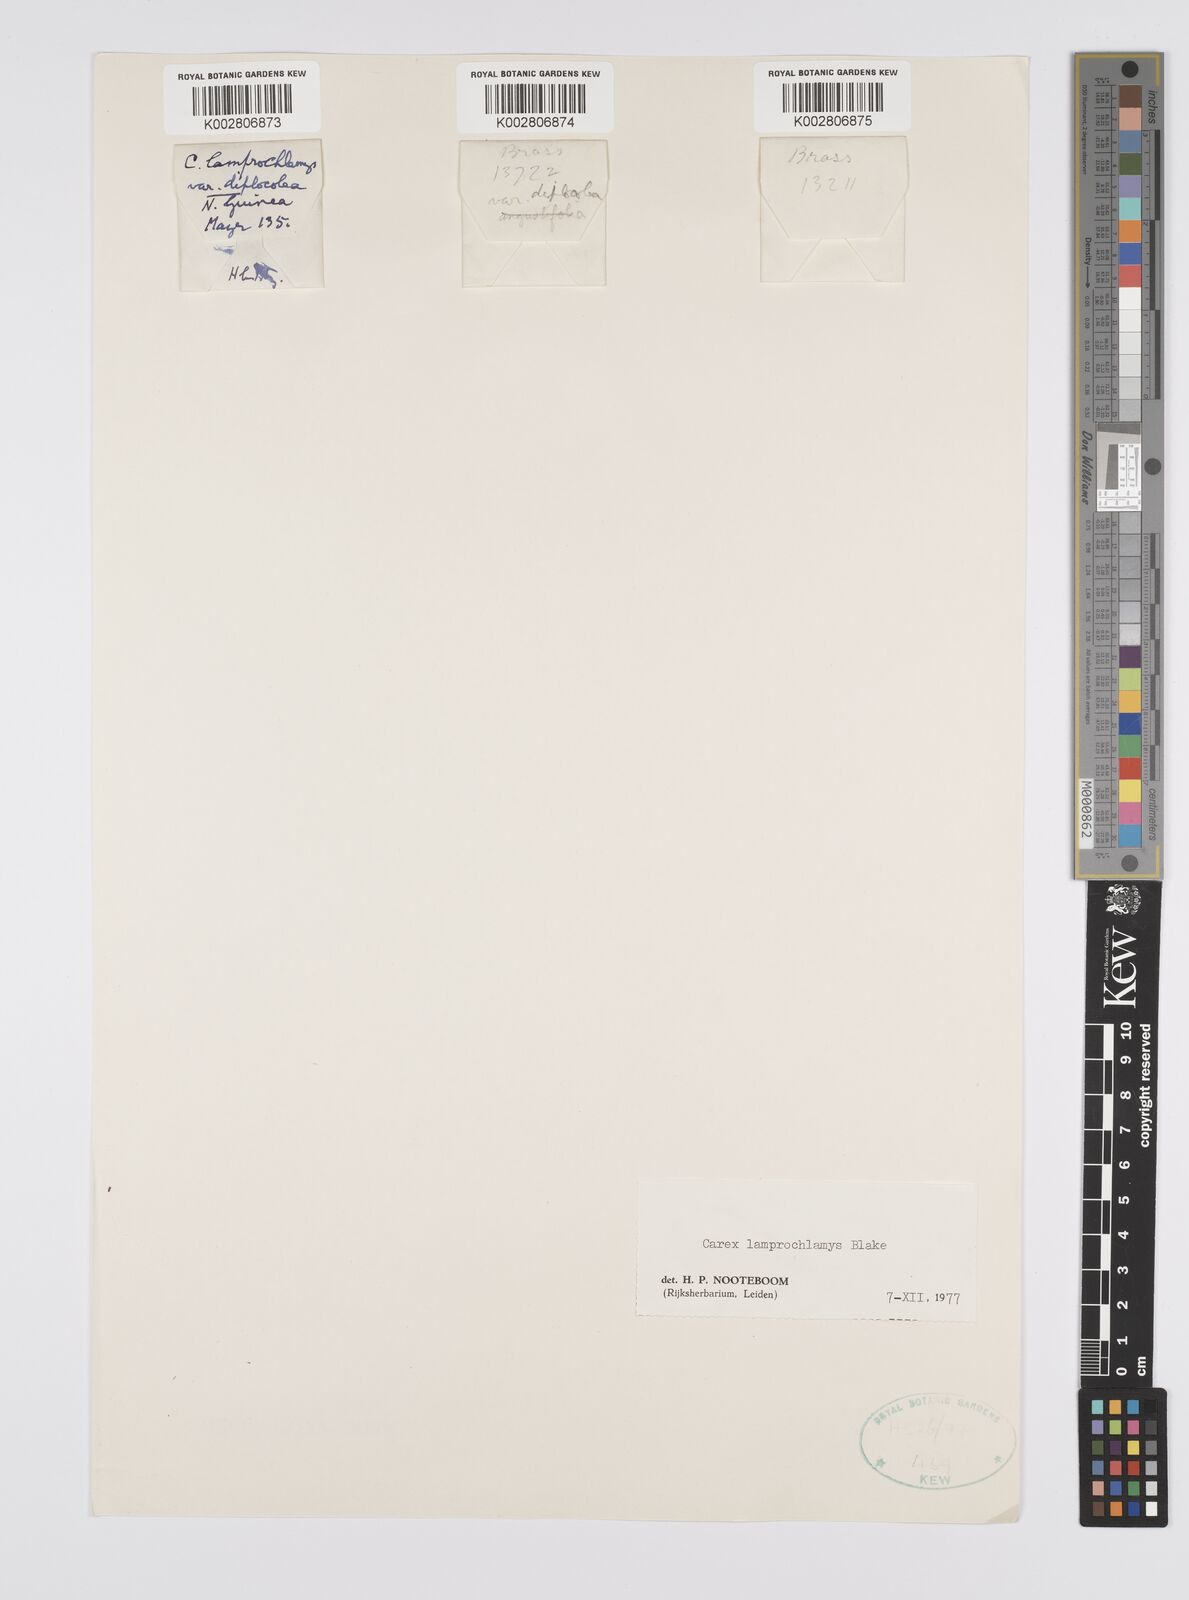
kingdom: Plantae
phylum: Tracheophyta
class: Liliopsida
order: Poales
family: Cyperaceae
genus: Carex
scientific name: Carex lamprochlamys
